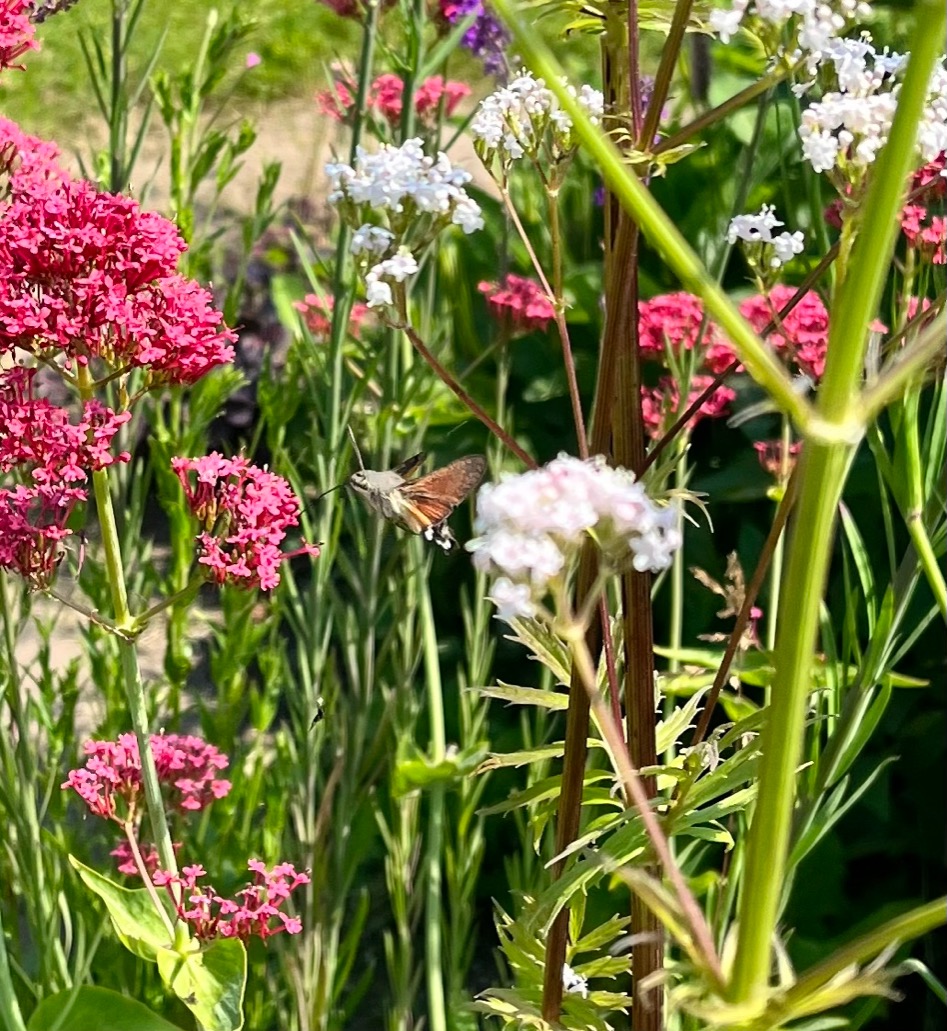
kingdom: Animalia
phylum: Arthropoda
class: Insecta
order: Lepidoptera
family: Sphingidae
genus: Macroglossum
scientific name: Macroglossum stellatarum
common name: Duehale
